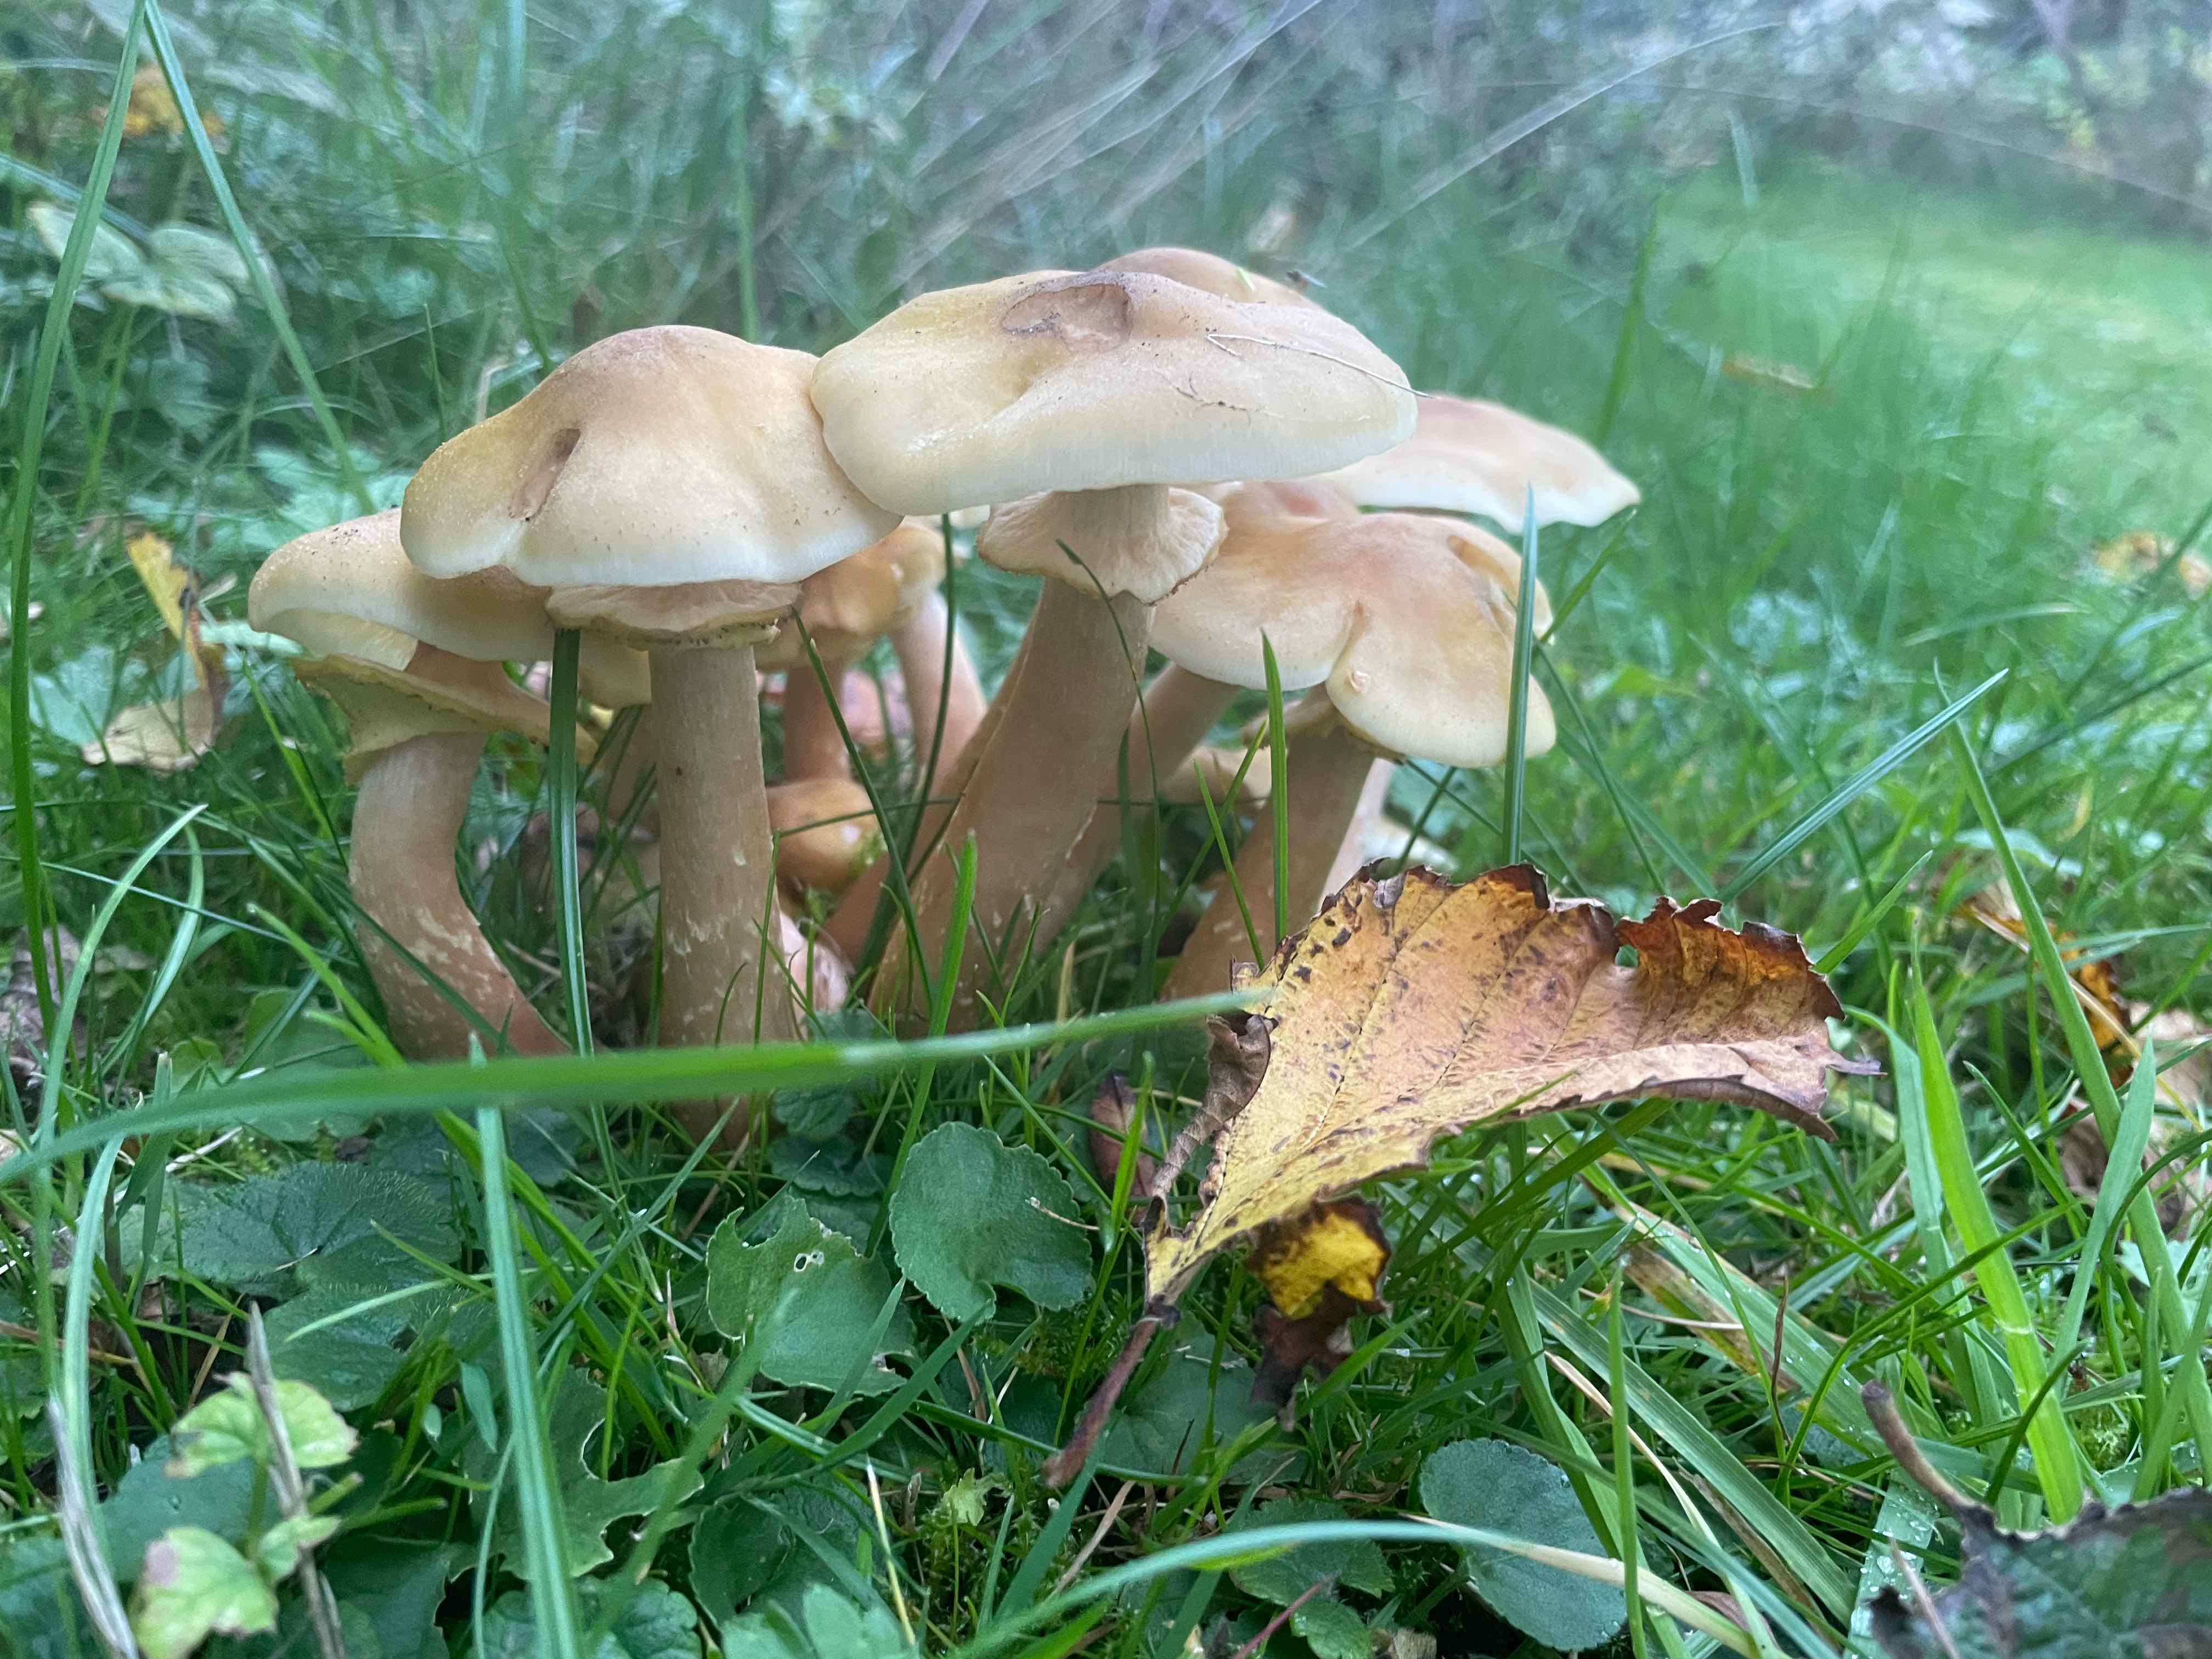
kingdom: Fungi
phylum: Basidiomycota
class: Agaricomycetes
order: Agaricales
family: Physalacriaceae
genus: Armillaria
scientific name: Armillaria mellea
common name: ægte honningsvamp
